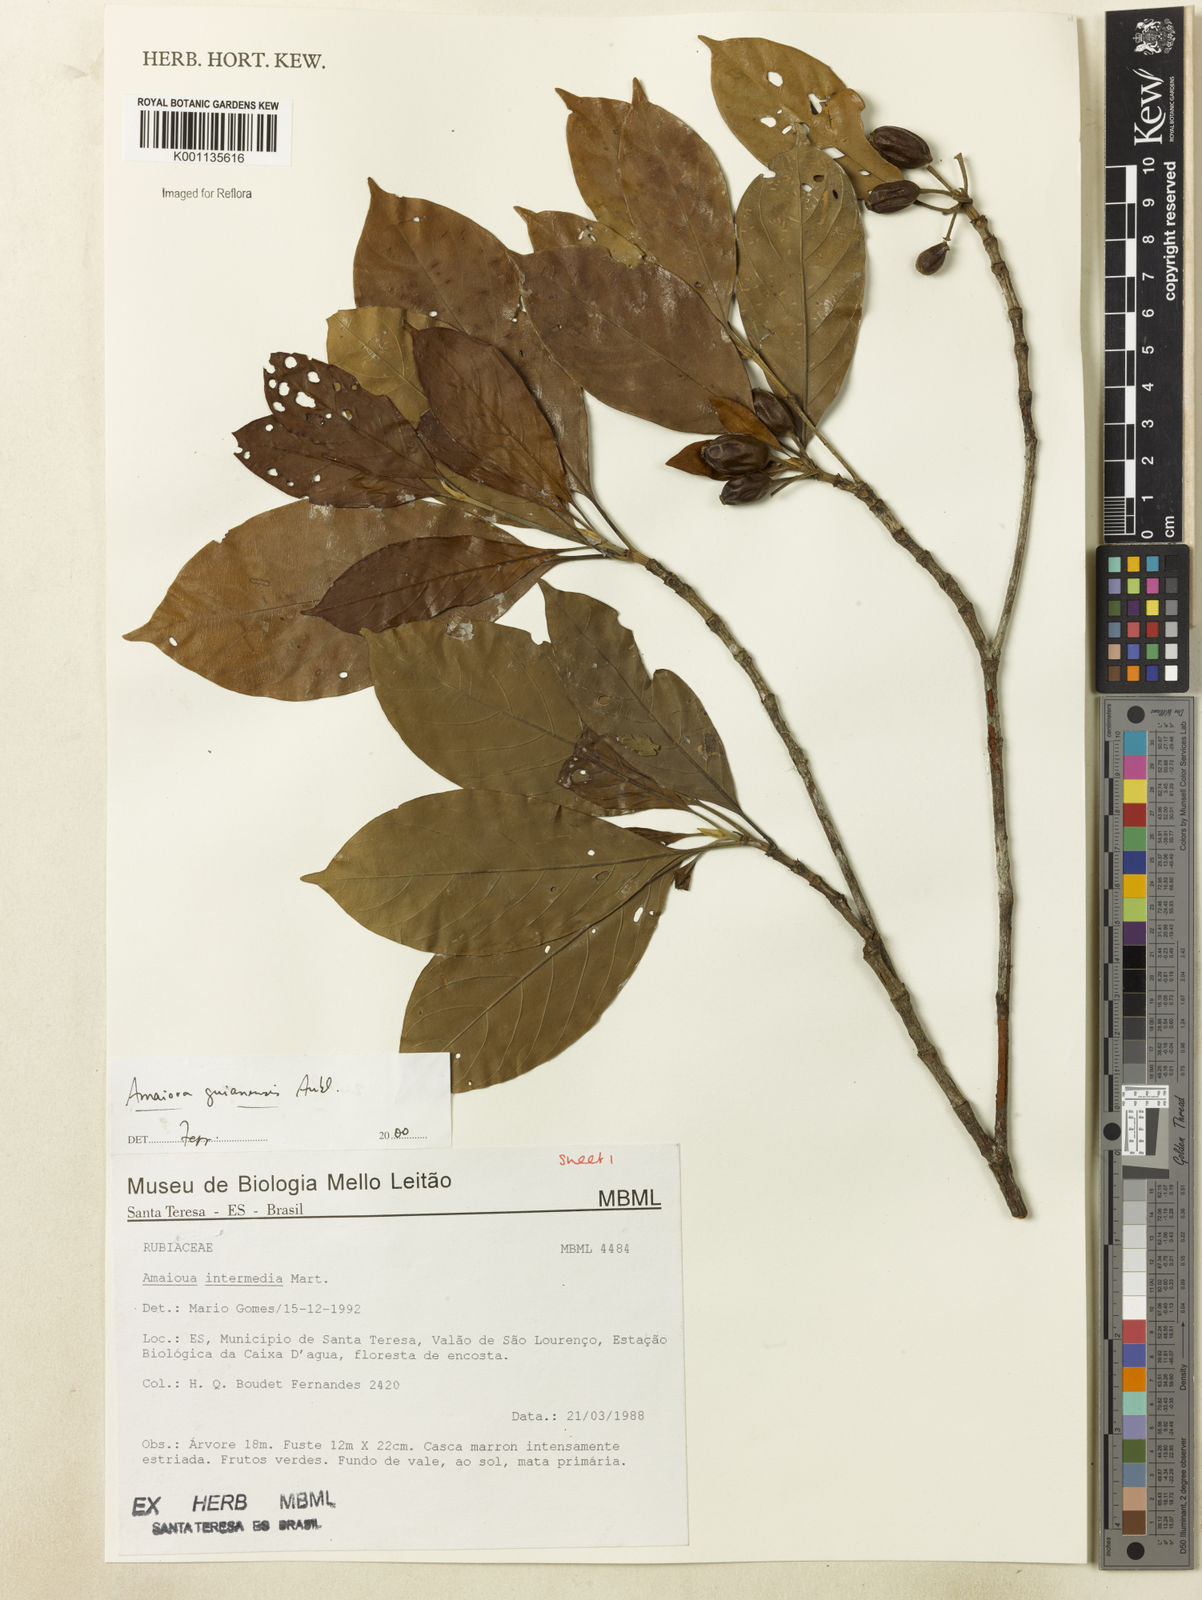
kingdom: Plantae
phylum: Tracheophyta
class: Magnoliopsida
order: Gentianales
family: Rubiaceae
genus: Amaioua
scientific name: Amaioua intermedia
